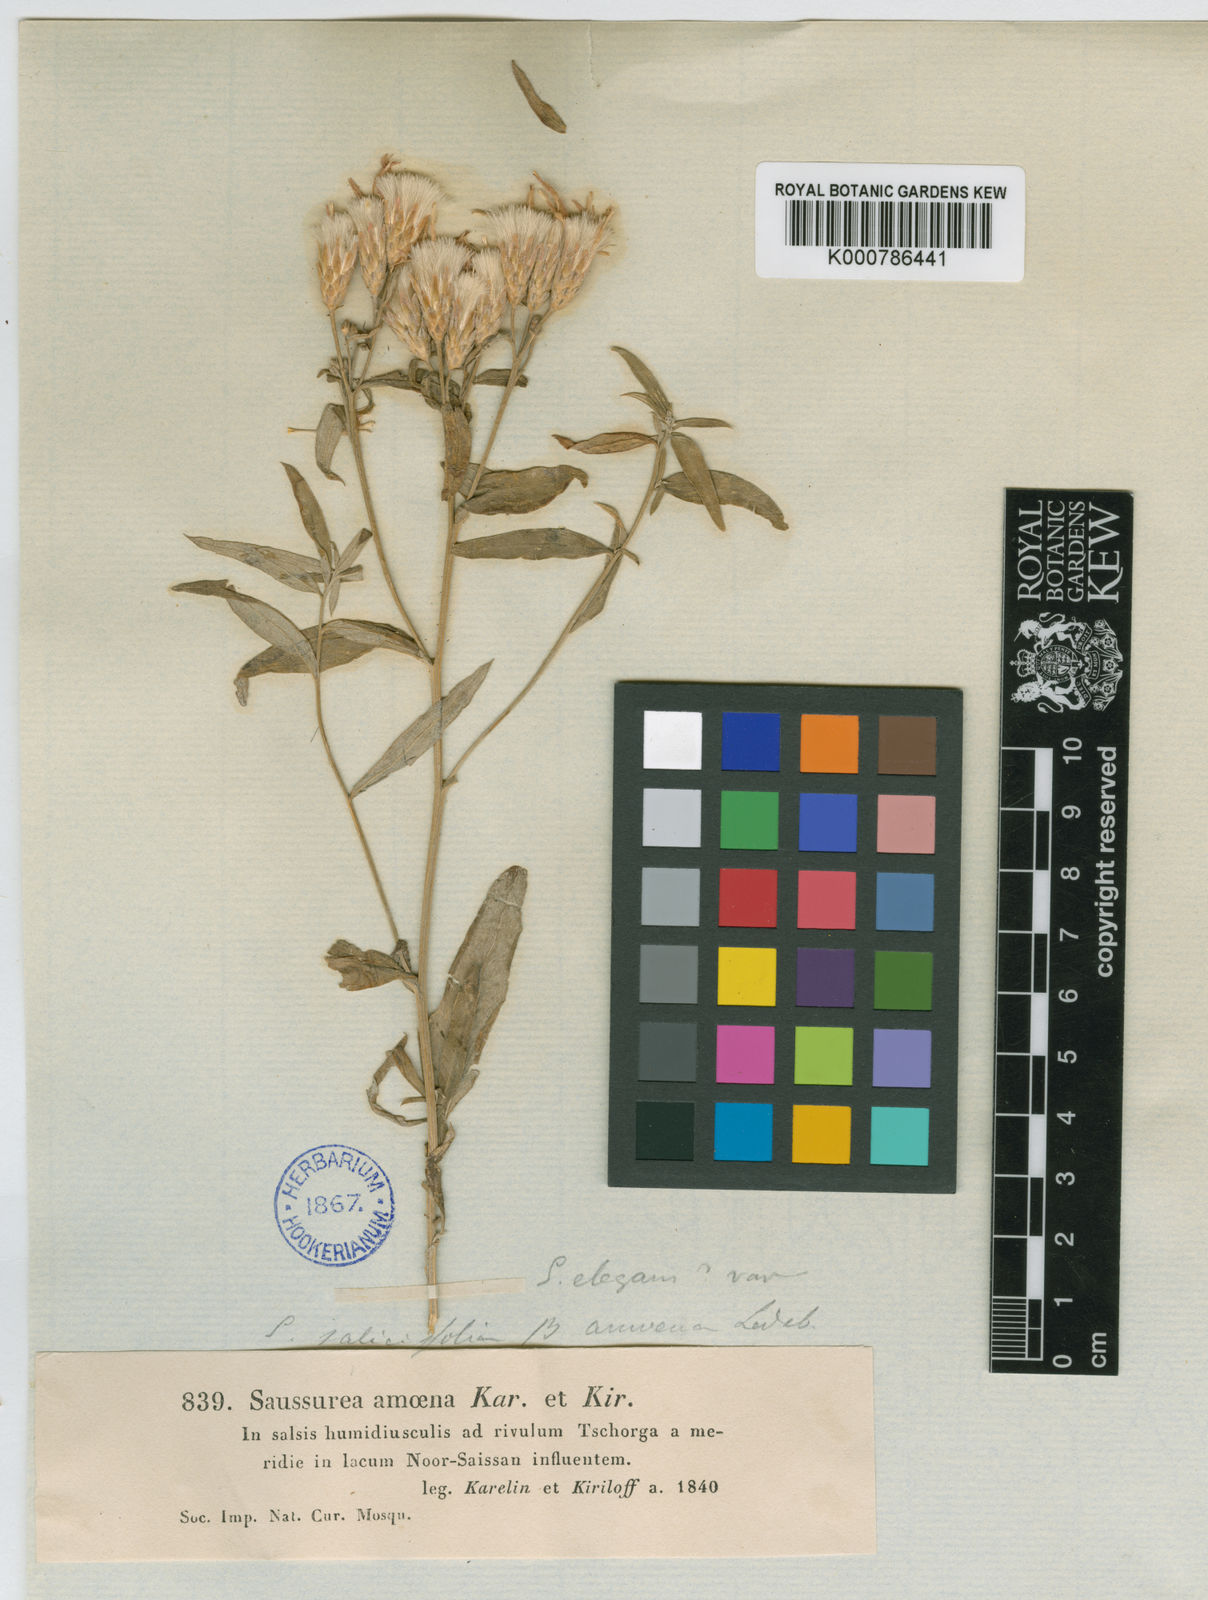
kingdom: Plantae
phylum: Tracheophyta
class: Magnoliopsida
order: Asterales
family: Asteraceae
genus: Saussurea
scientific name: Saussurea elegans
